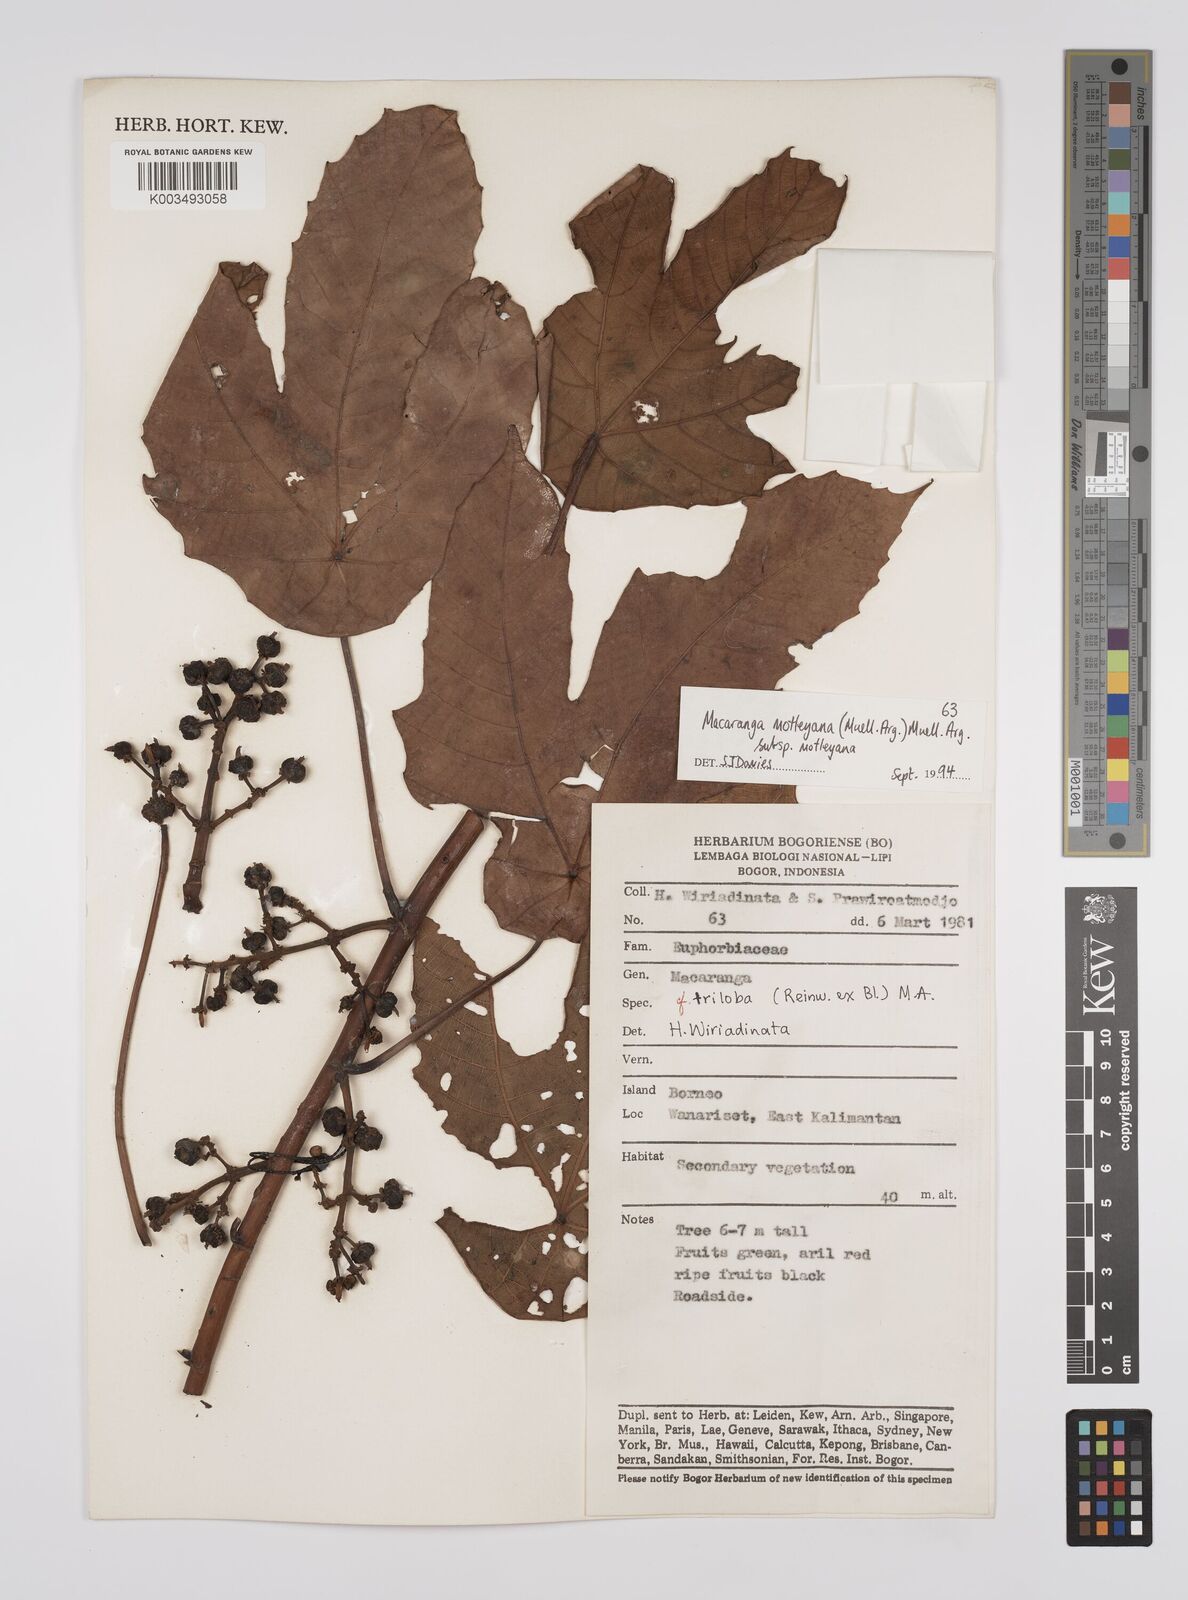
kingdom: Plantae
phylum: Tracheophyta
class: Magnoliopsida
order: Malpighiales
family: Euphorbiaceae
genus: Macaranga
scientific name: Macaranga motleyana
